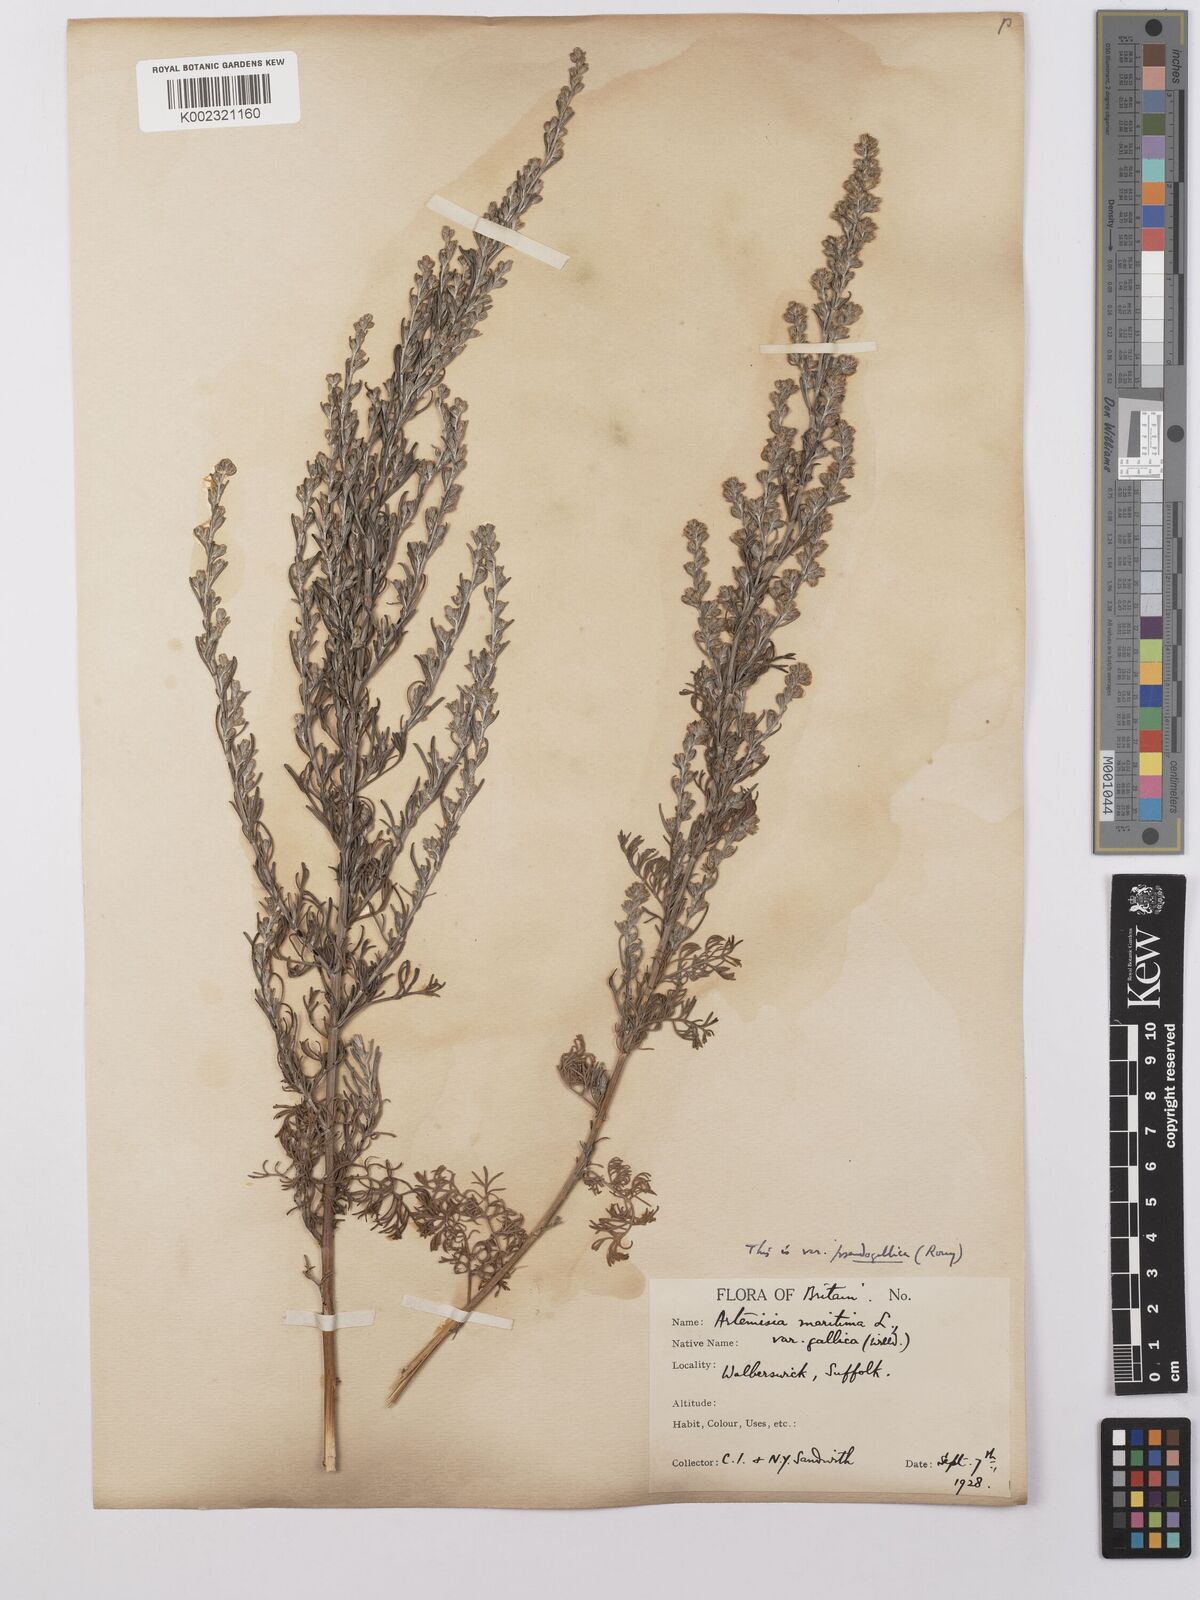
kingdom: Plantae
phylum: Tracheophyta
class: Magnoliopsida
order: Asterales
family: Asteraceae
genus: Artemisia
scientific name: Artemisia maritima
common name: Wormseed
